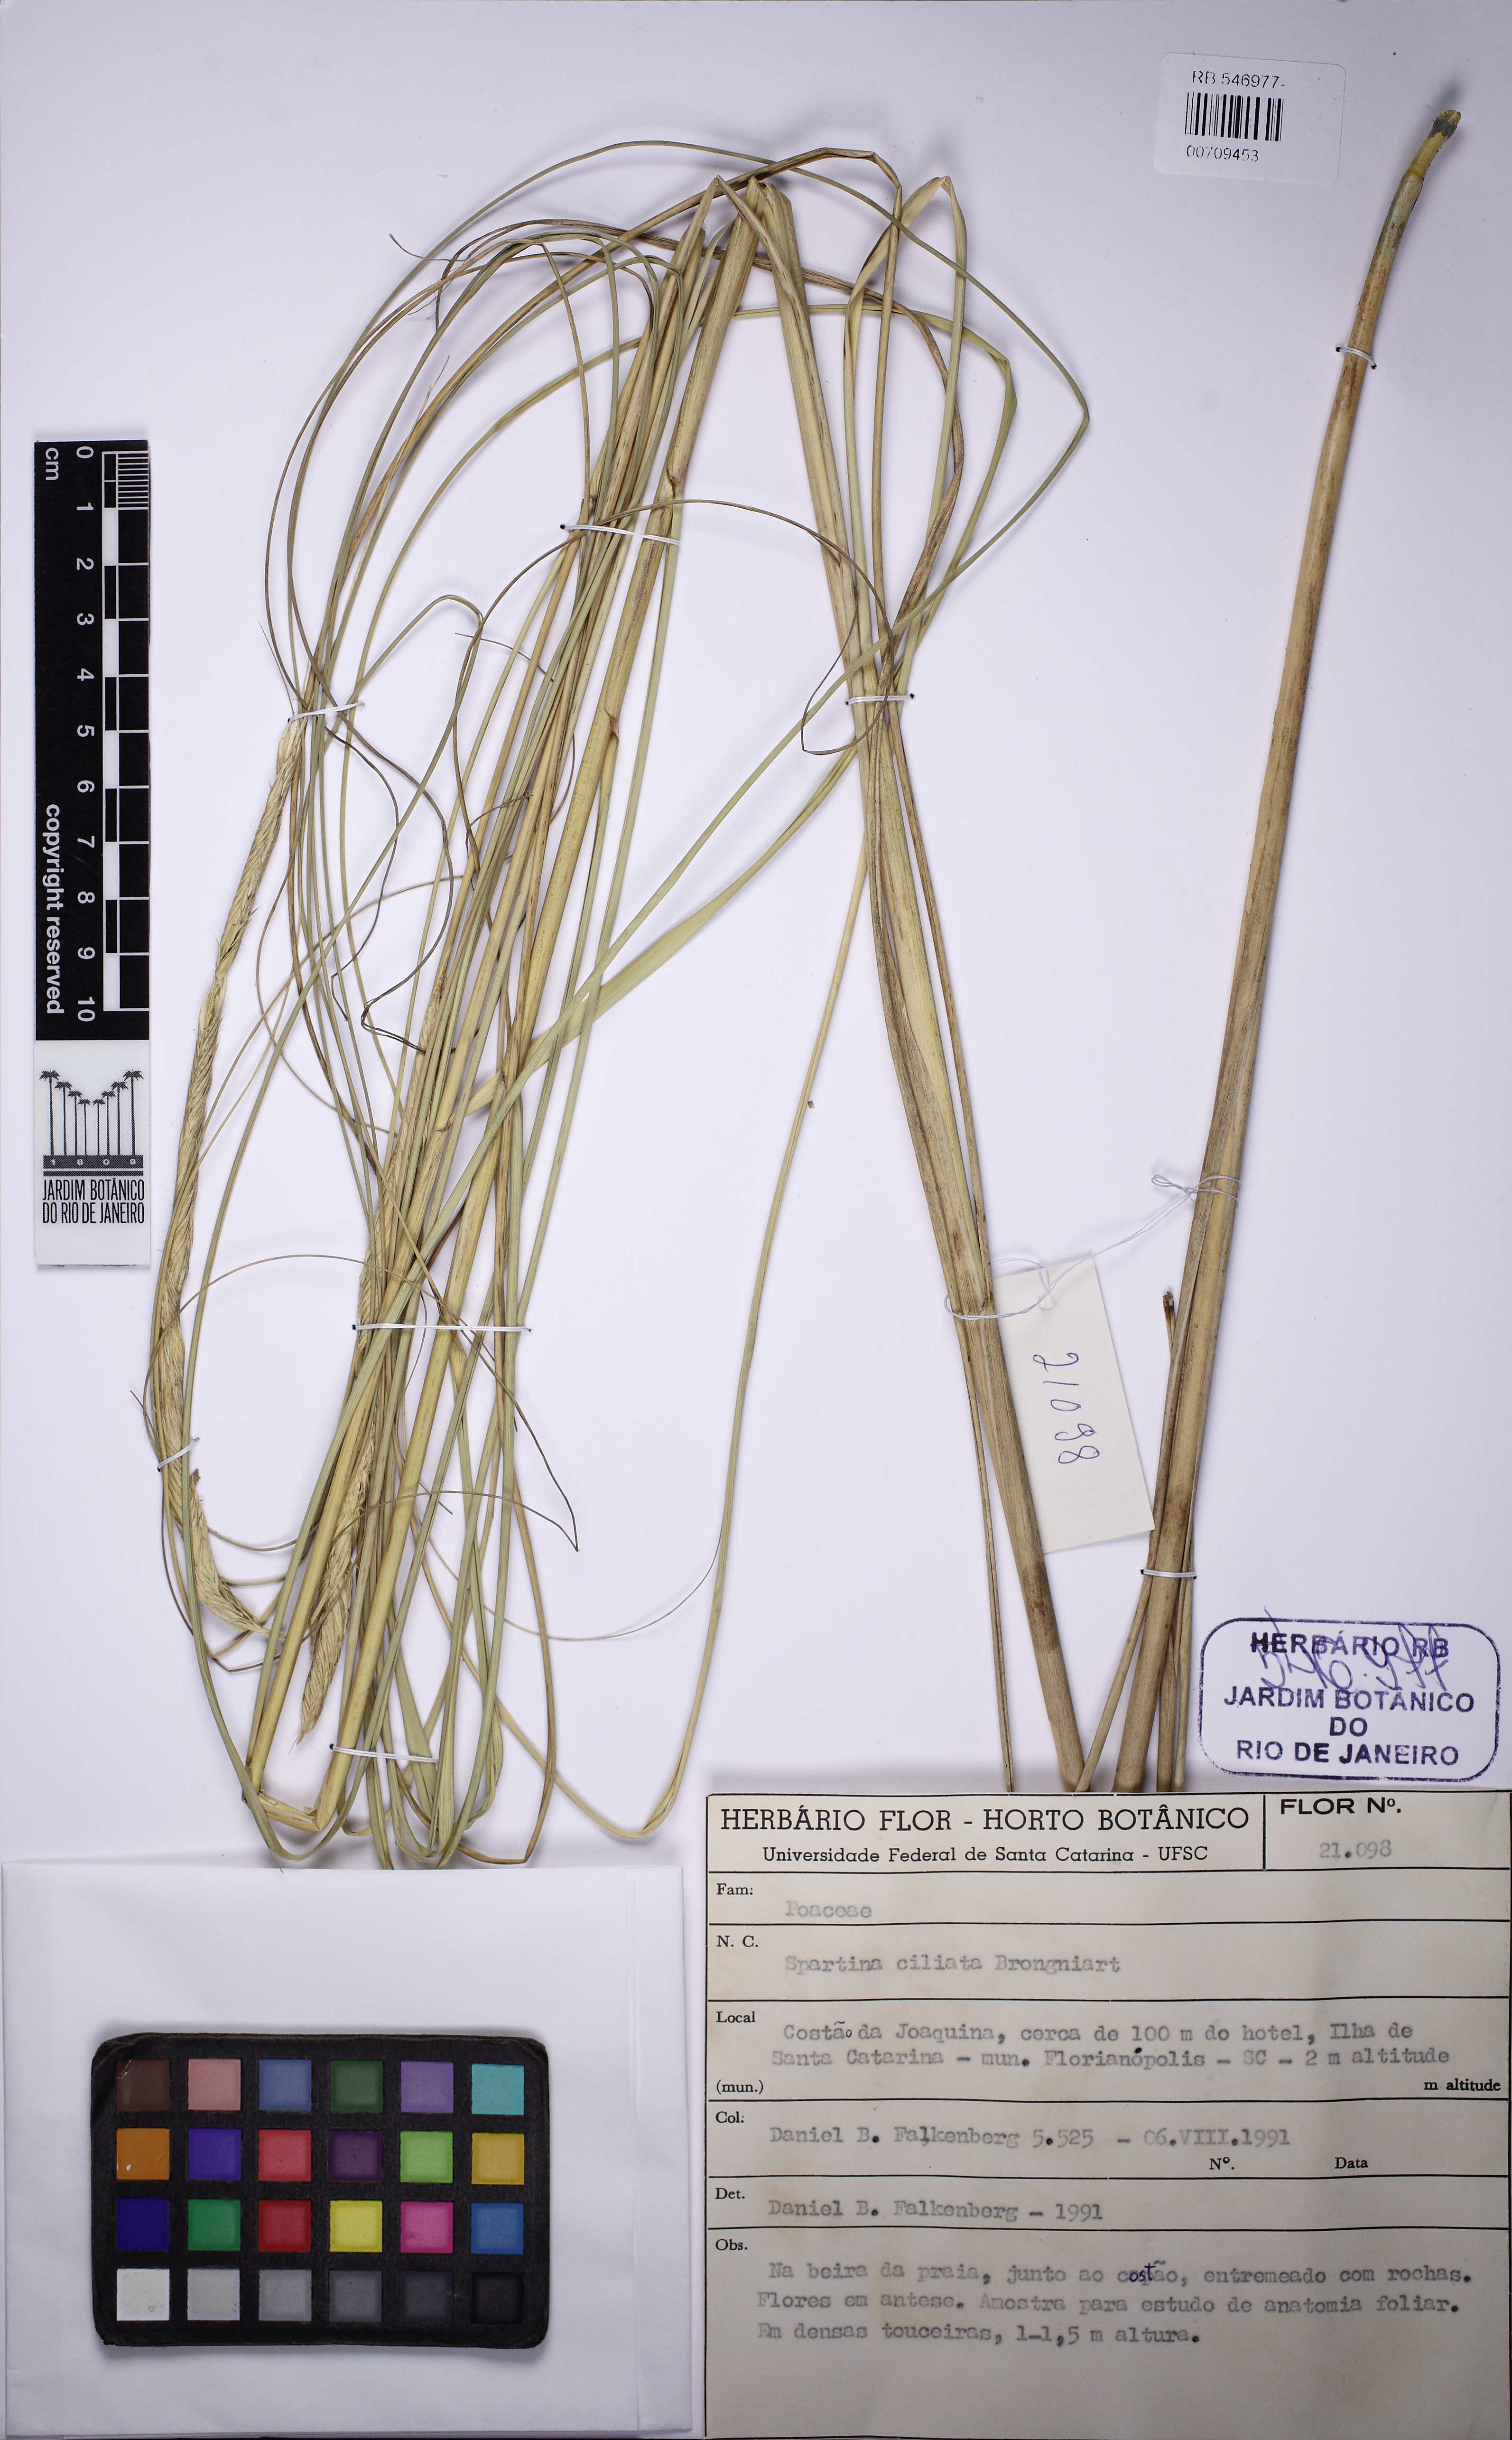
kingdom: Plantae
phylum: Tracheophyta
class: Liliopsida
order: Poales
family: Poaceae
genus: Sporobolus
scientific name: Sporobolus coarctatus
